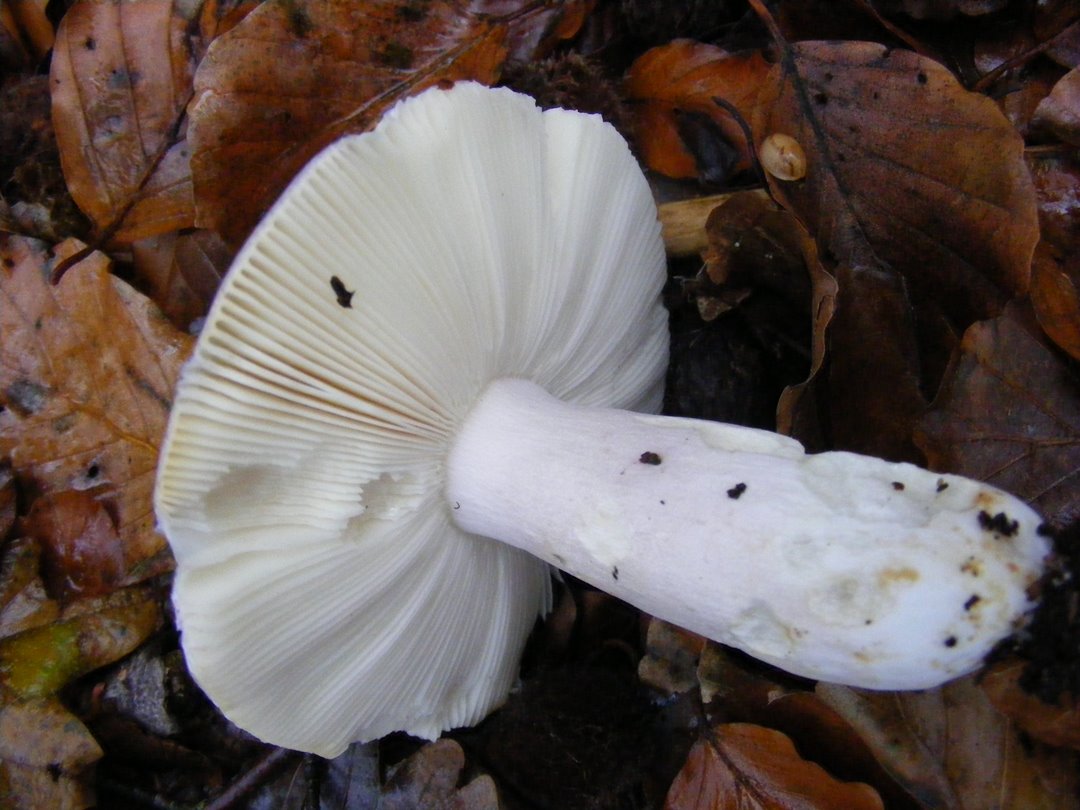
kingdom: Fungi
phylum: Basidiomycota
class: Agaricomycetes
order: Russulales
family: Russulaceae
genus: Russula
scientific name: Russula ionochlora
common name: violetgrøn skørhat
